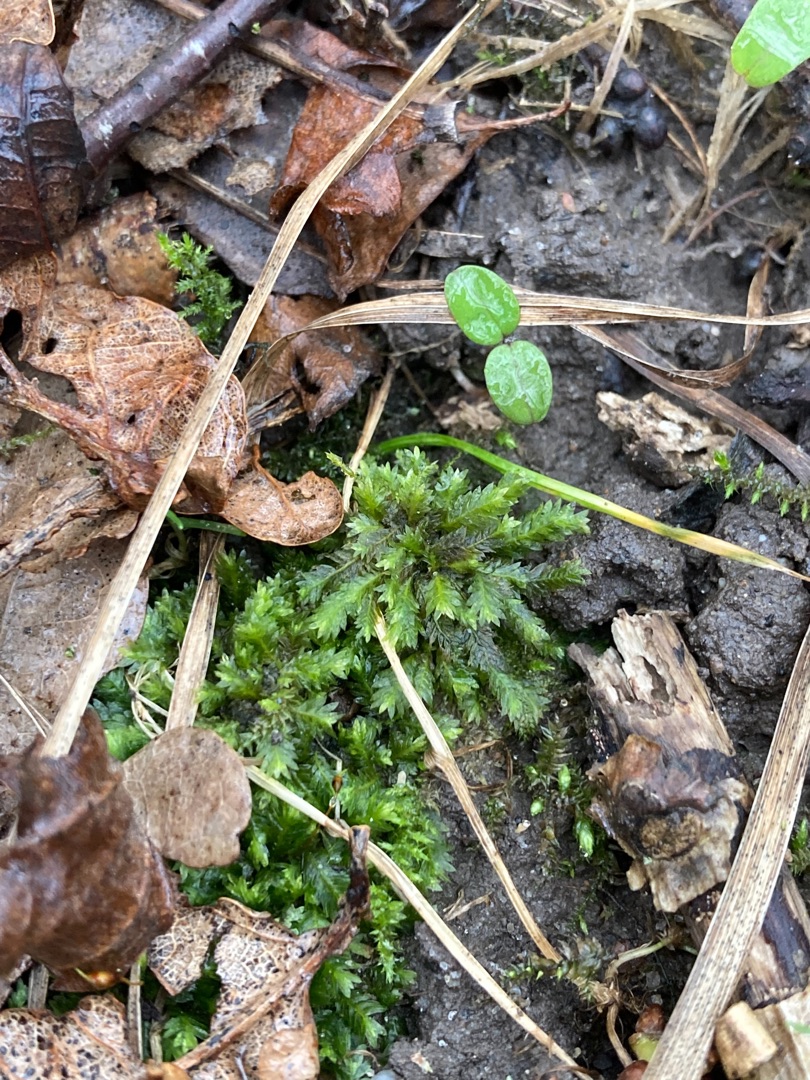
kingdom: Plantae
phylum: Bryophyta
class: Bryopsida
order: Dicranales
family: Fissidentaceae
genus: Fissidens
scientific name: Fissidens taxifolius
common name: Taksbladet rademos
